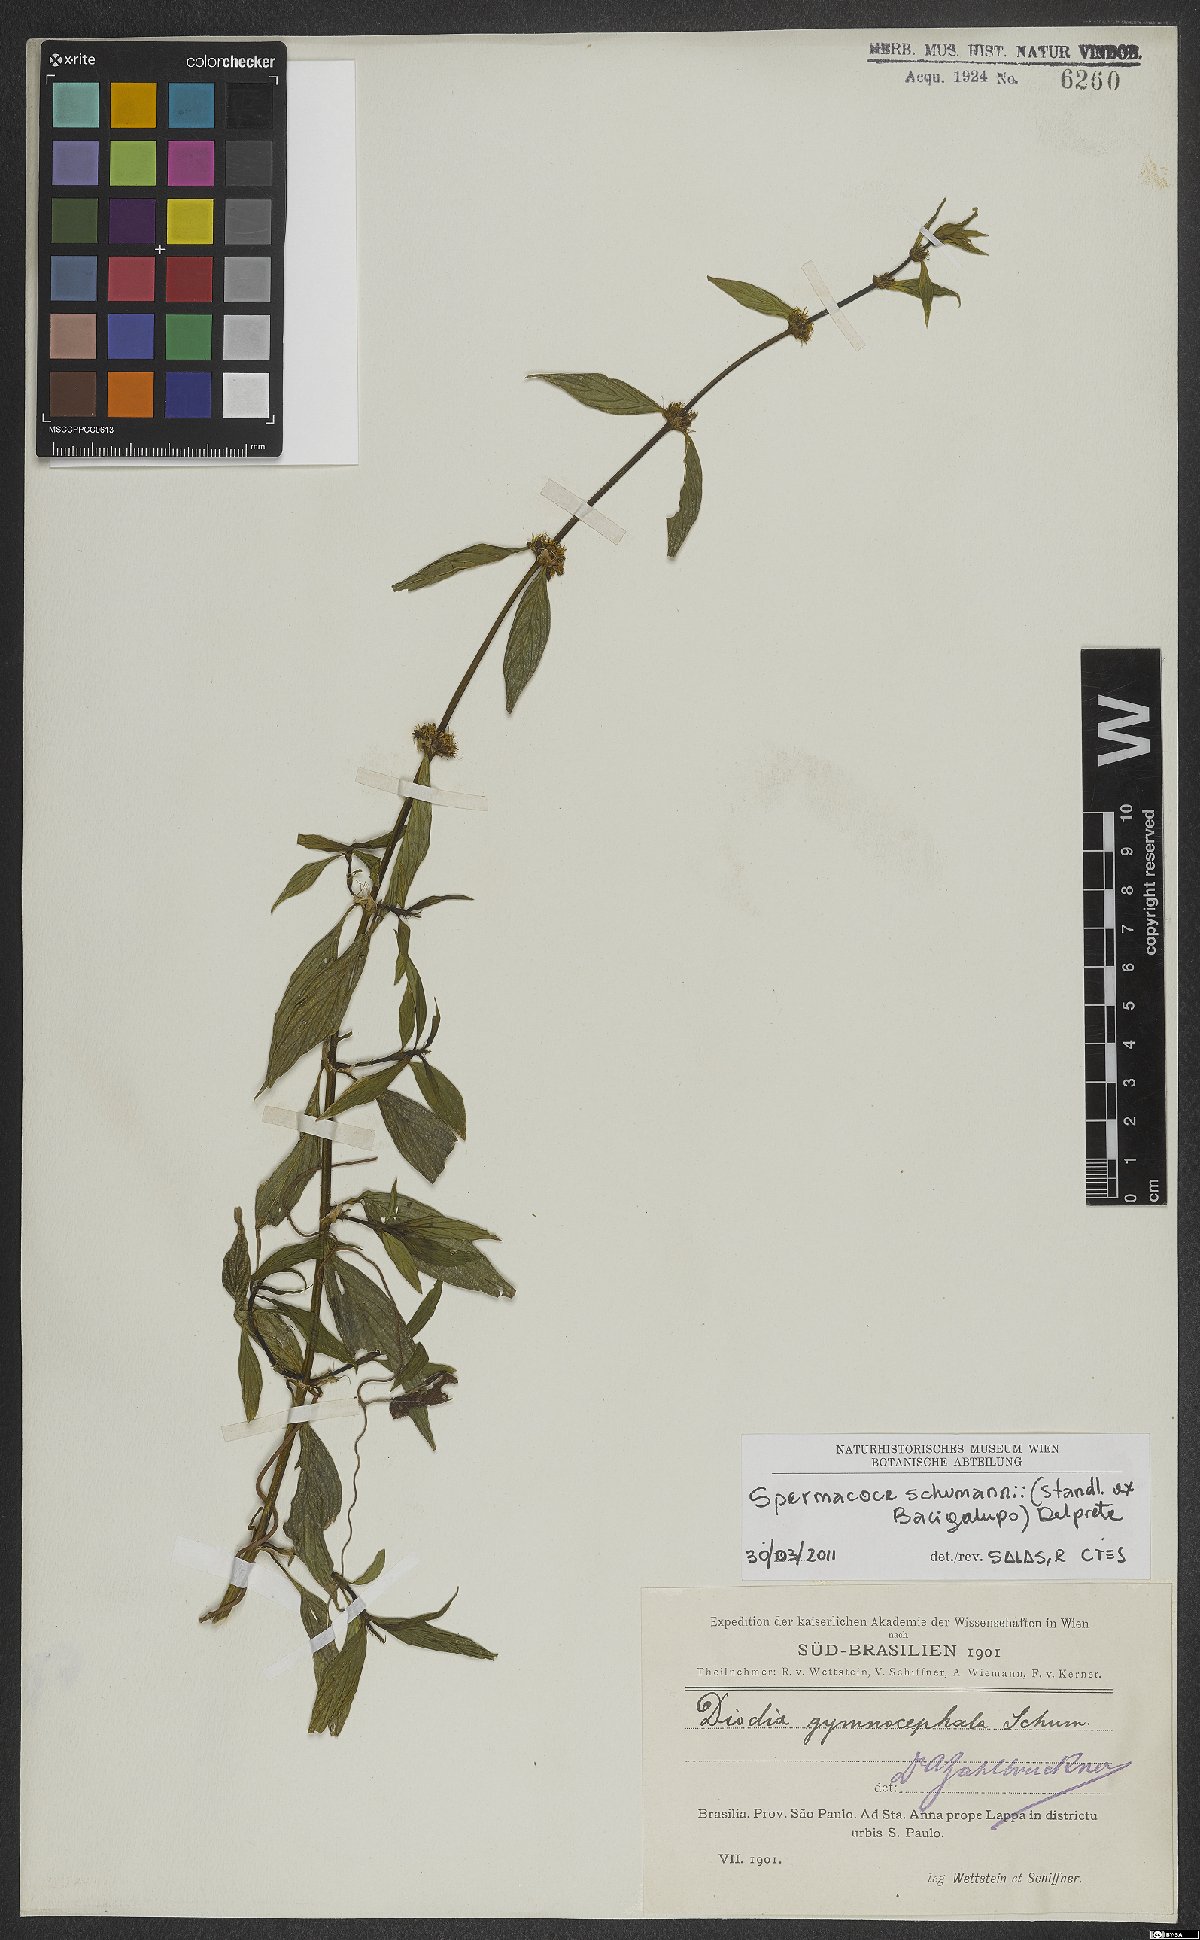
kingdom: Plantae
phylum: Tracheophyta
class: Magnoliopsida
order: Gentianales
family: Rubiaceae
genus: Spermacoce
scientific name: Spermacoce schumannii
